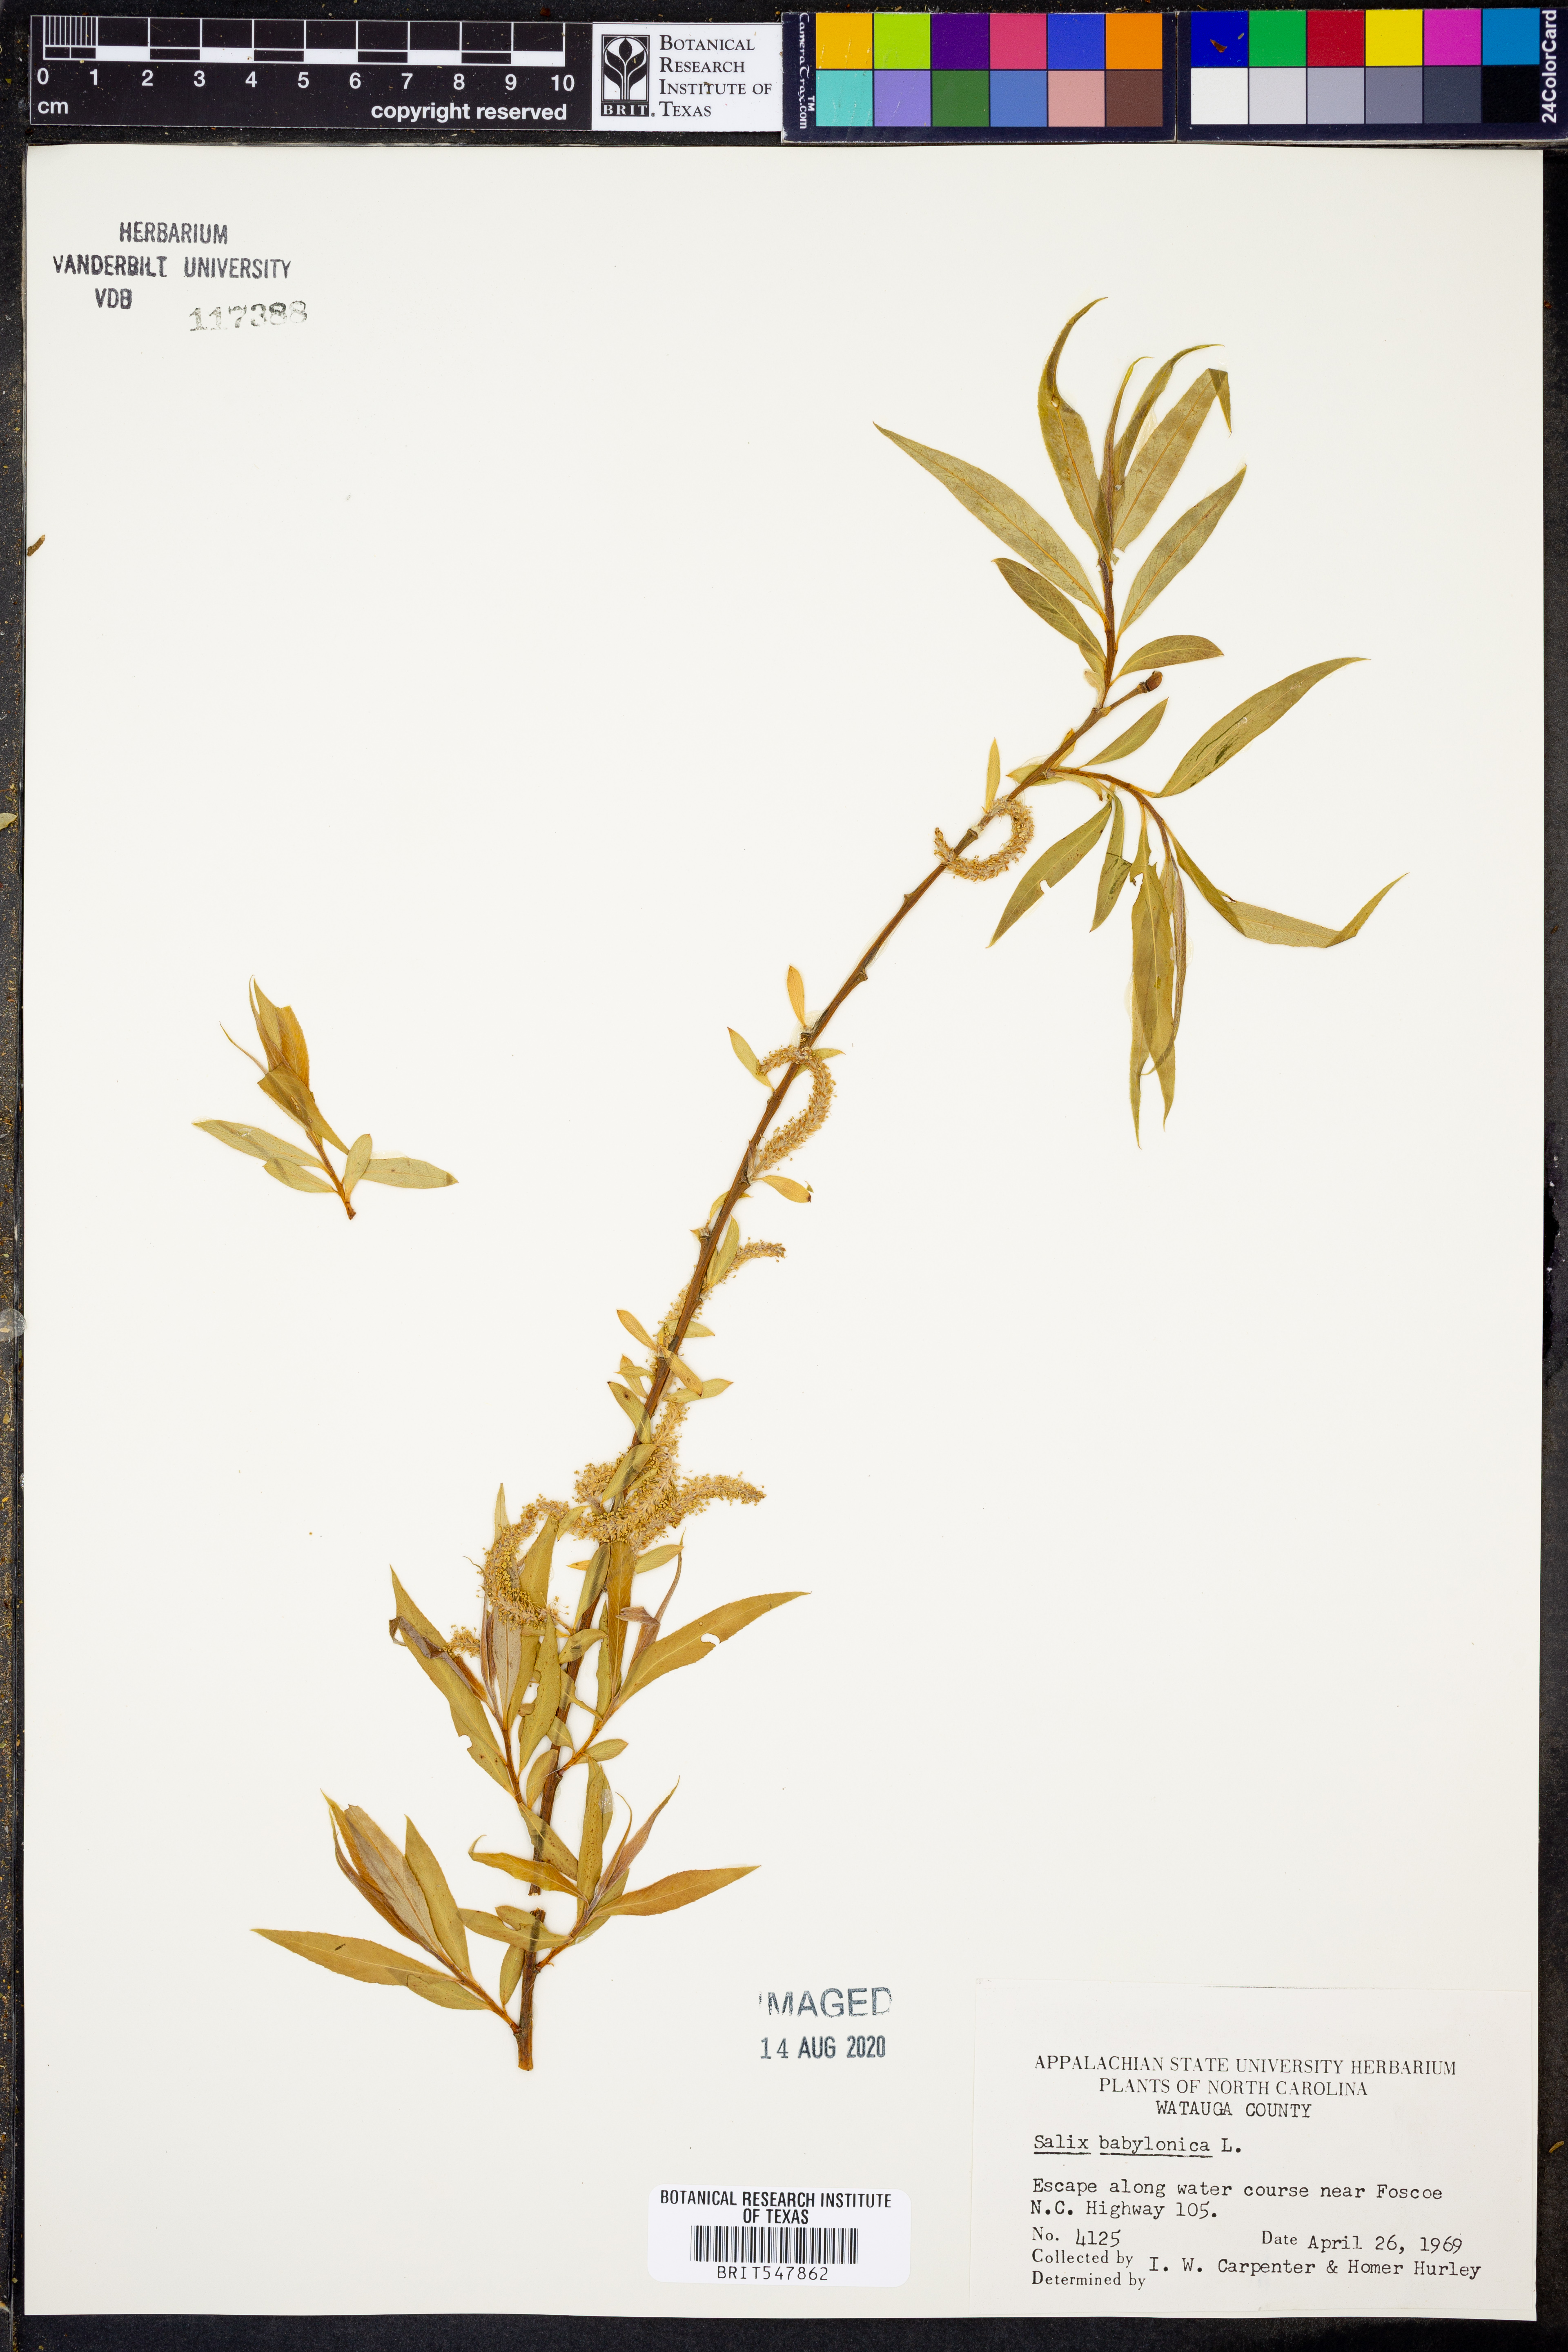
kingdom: Plantae
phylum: Tracheophyta
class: Magnoliopsida
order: Malpighiales
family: Salicaceae
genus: Salix
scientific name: Salix babylonica
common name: Weeping willow
